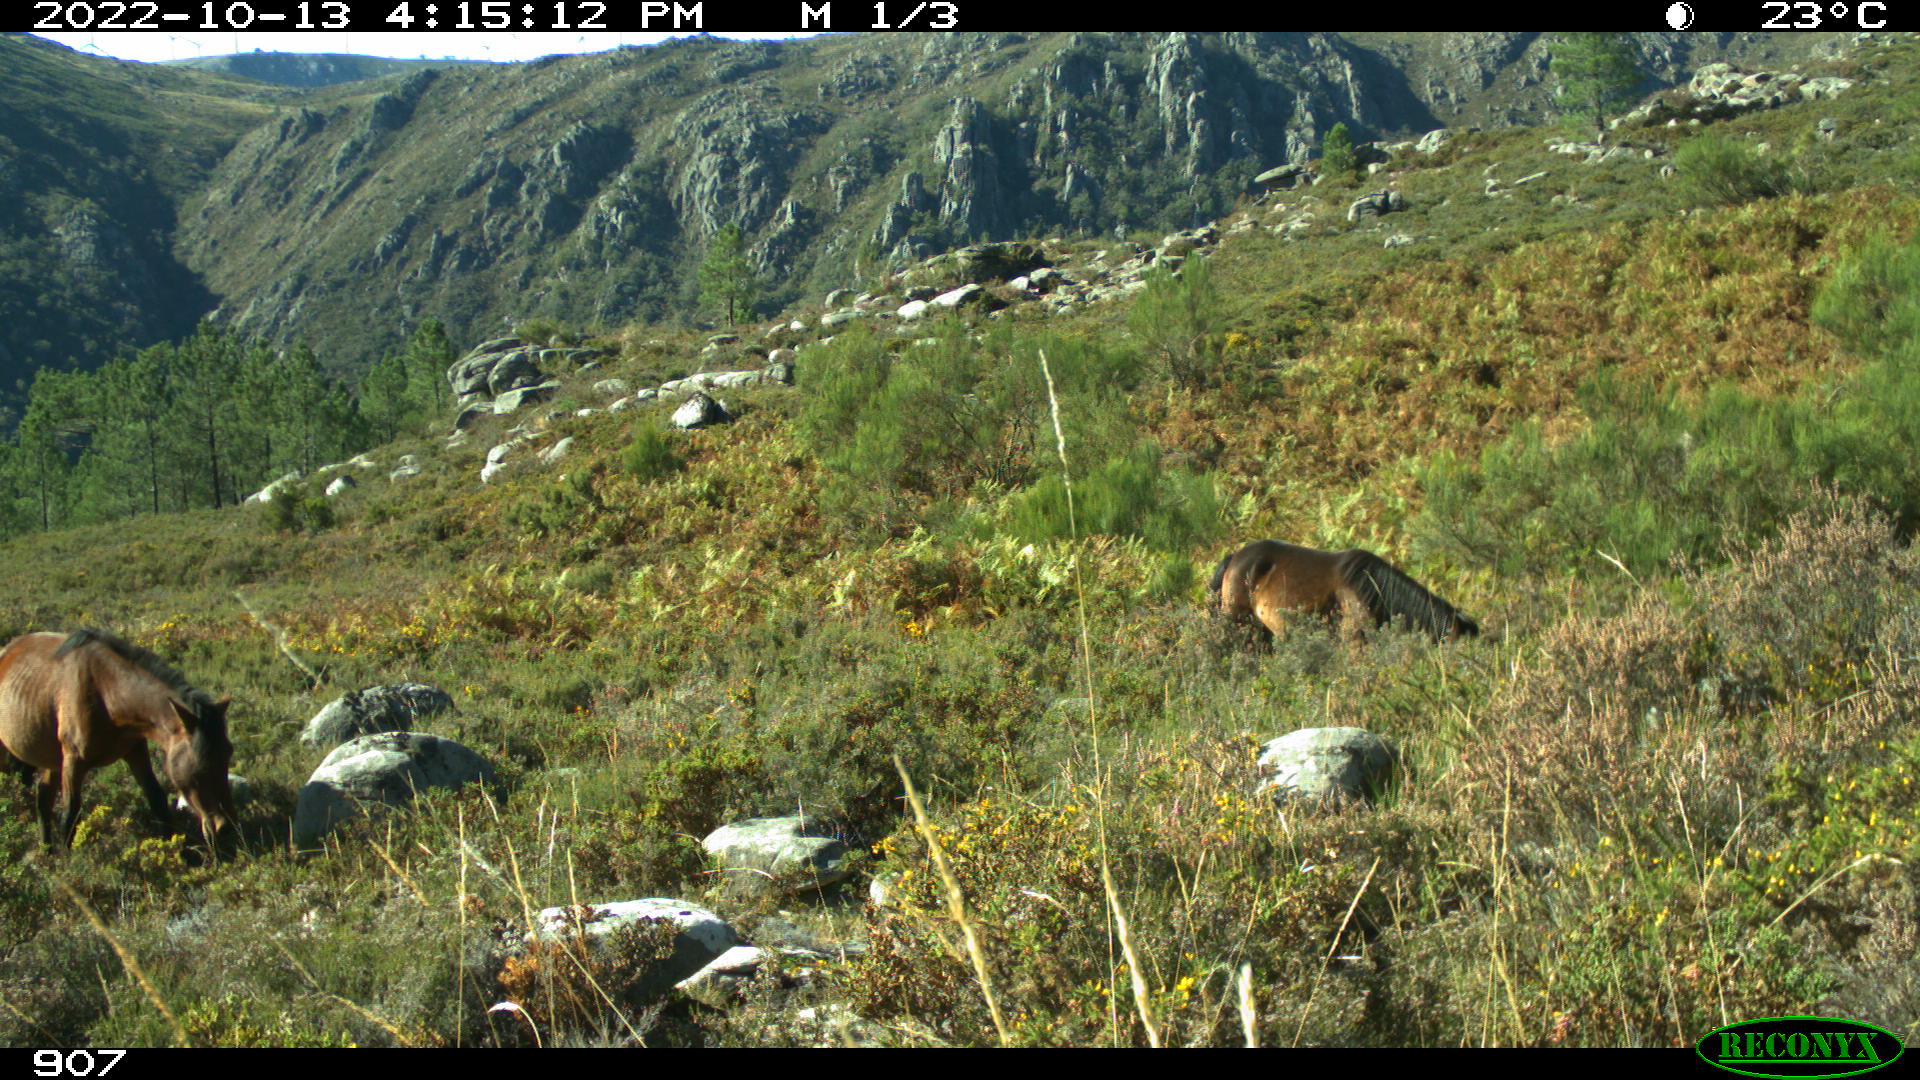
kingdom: Animalia
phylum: Chordata
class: Mammalia
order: Perissodactyla
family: Equidae
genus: Equus
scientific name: Equus caballus
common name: Horse
